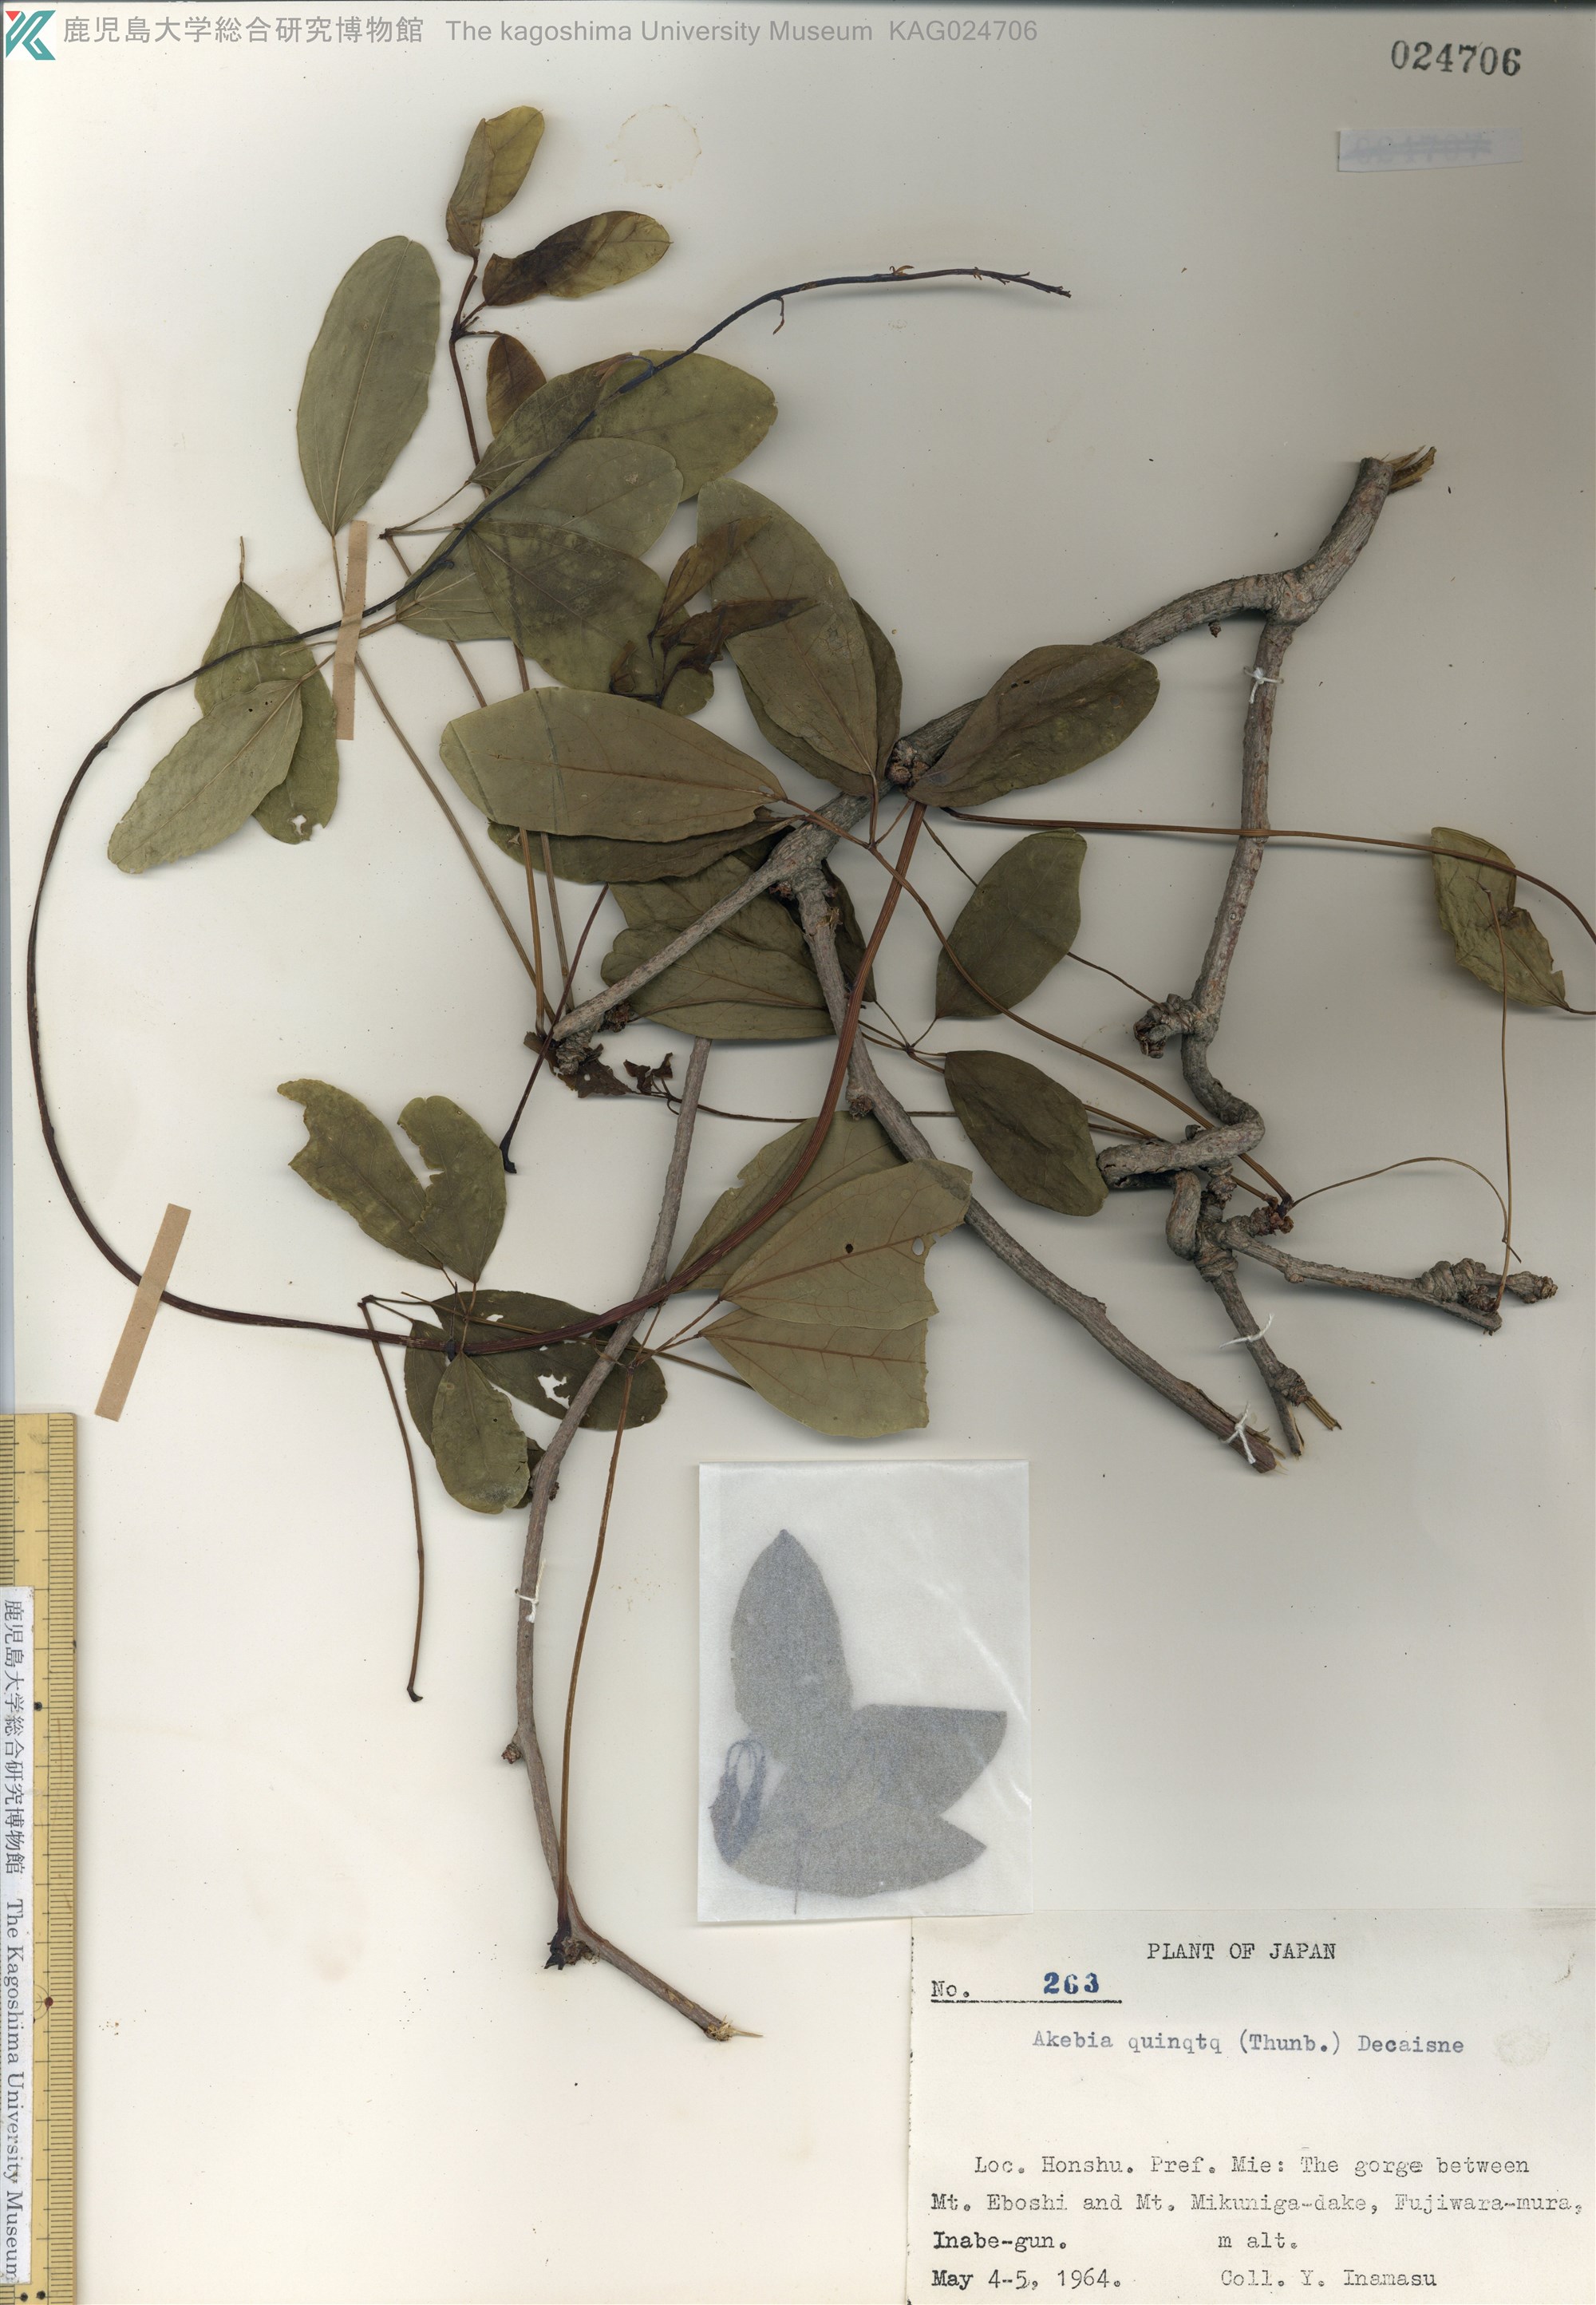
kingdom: Plantae
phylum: Tracheophyta
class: Magnoliopsida
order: Ranunculales
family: Lardizabalaceae
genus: Stauntonia
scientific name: Stauntonia hexaphylla
